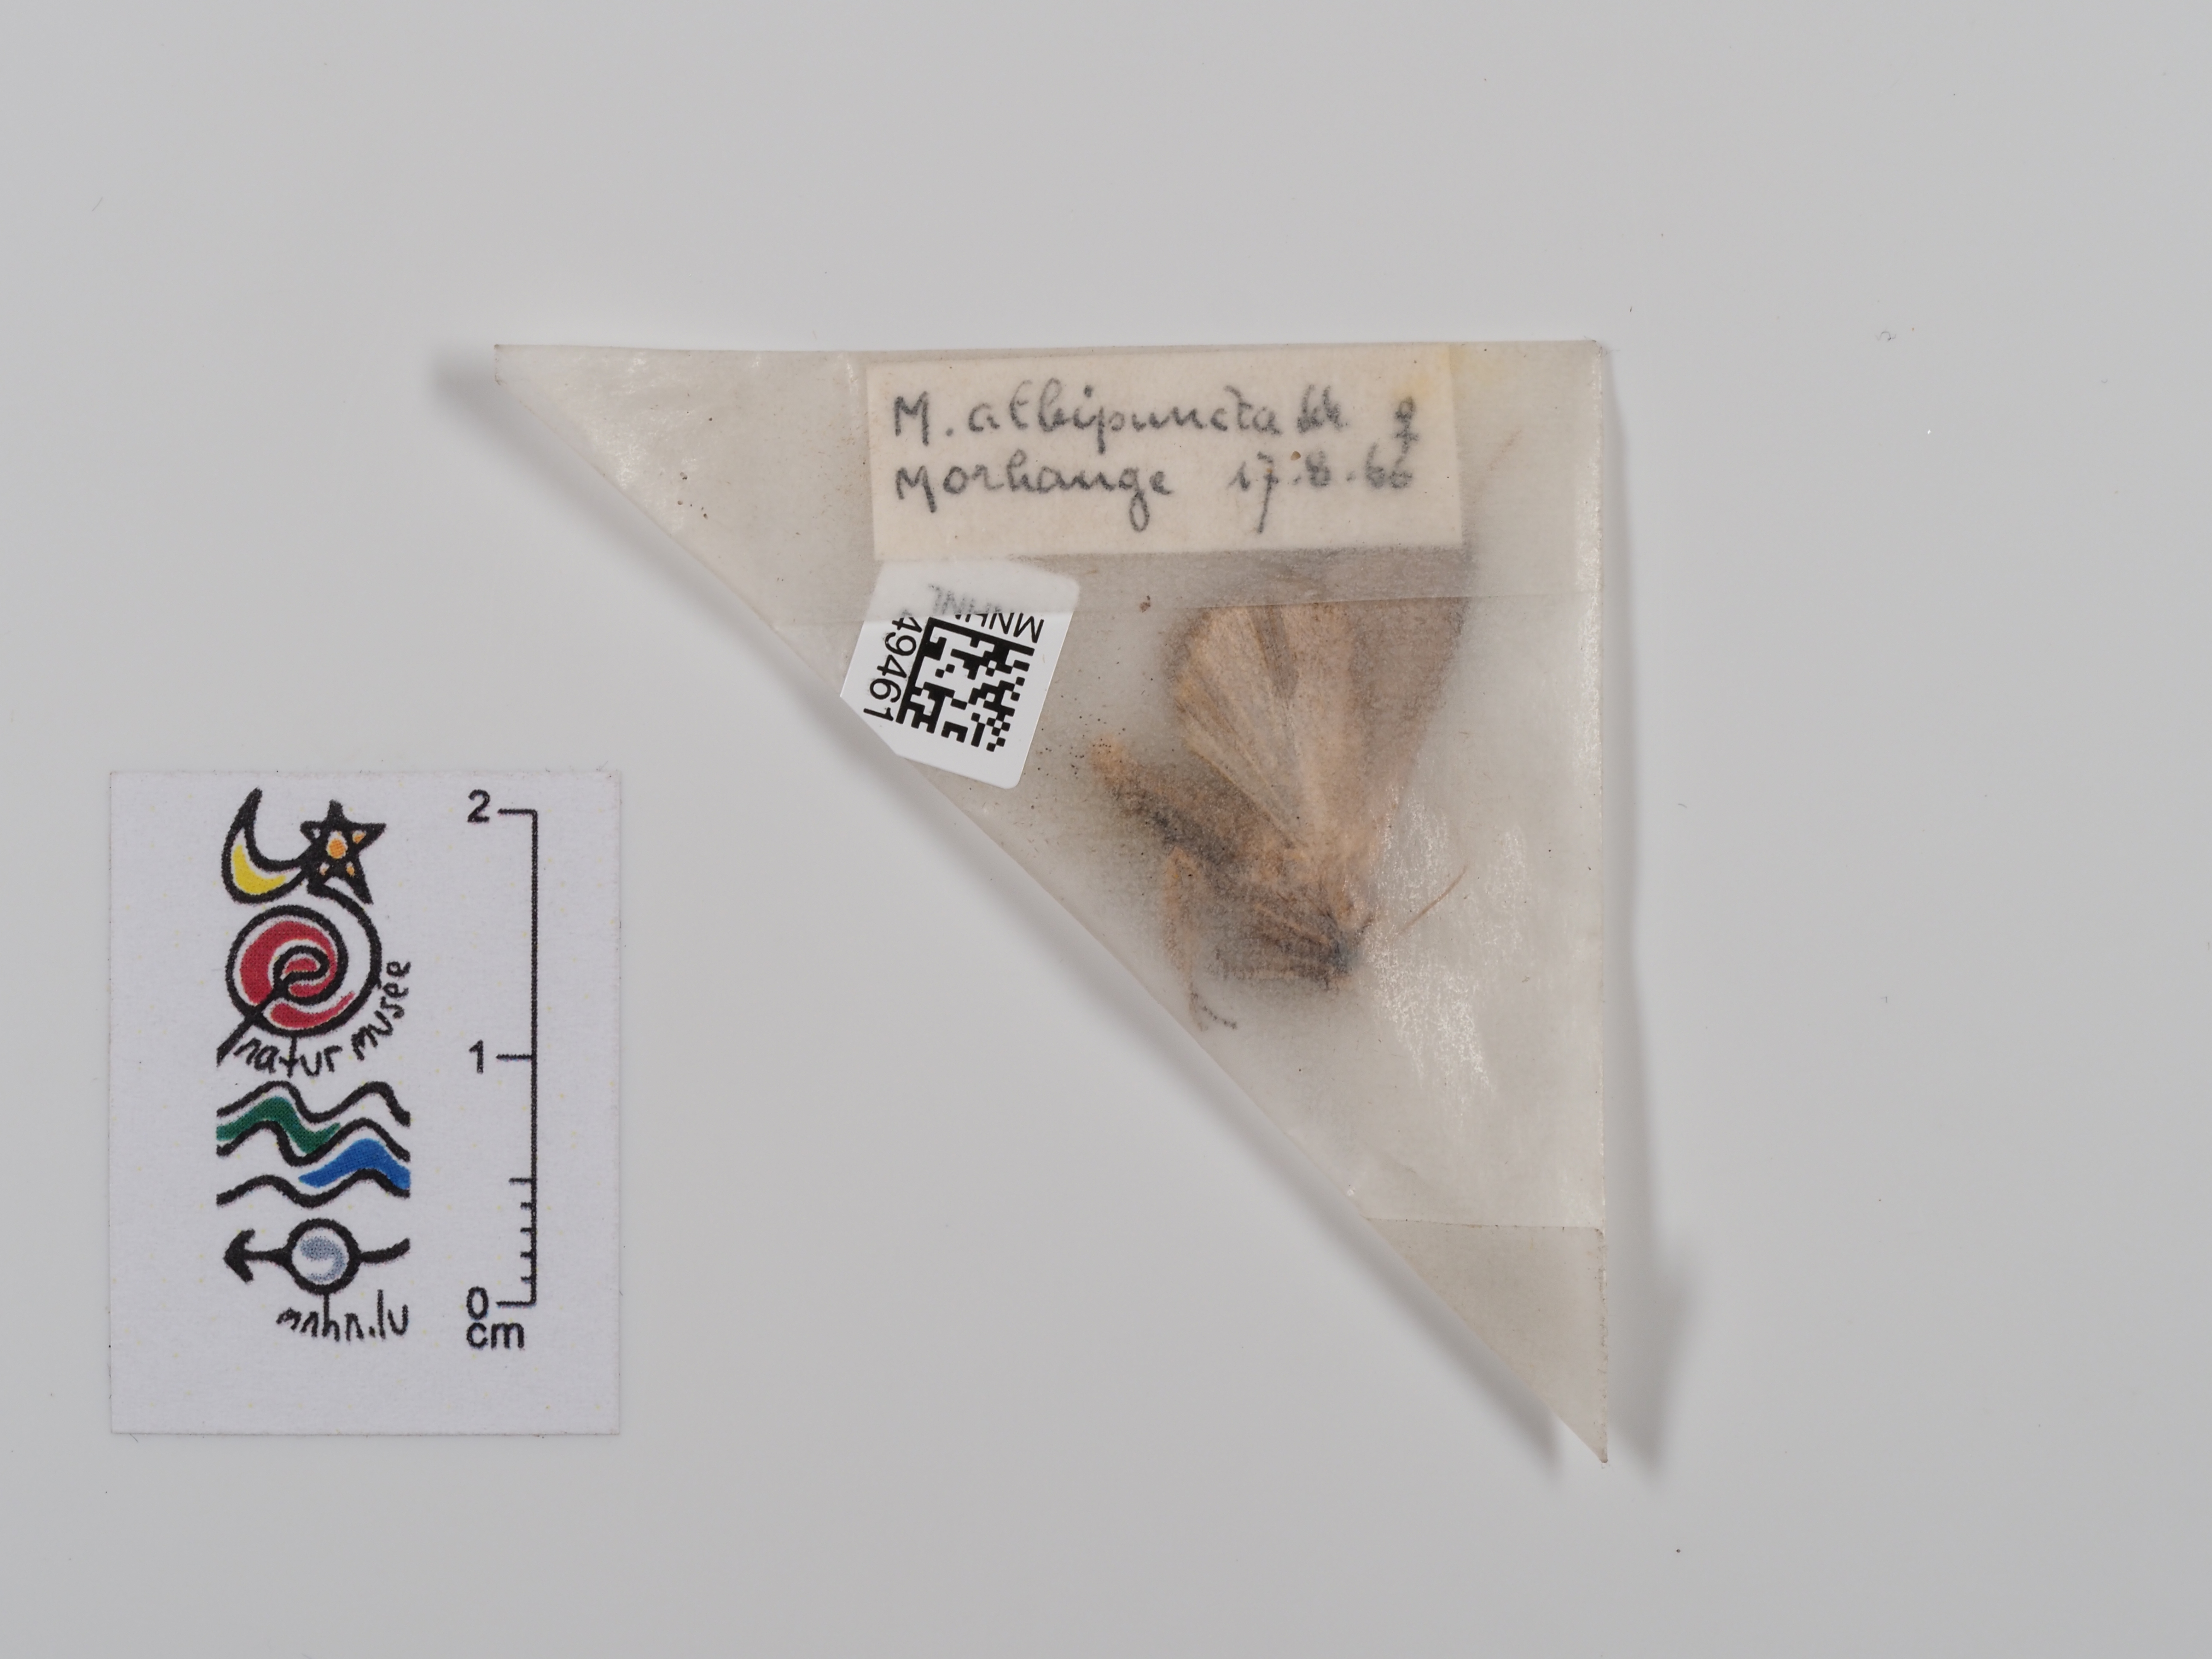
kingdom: Animalia
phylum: Arthropoda
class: Insecta
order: Lepidoptera
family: Noctuidae
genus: Mythimna
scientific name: Mythimna albipuncta
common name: White-point
